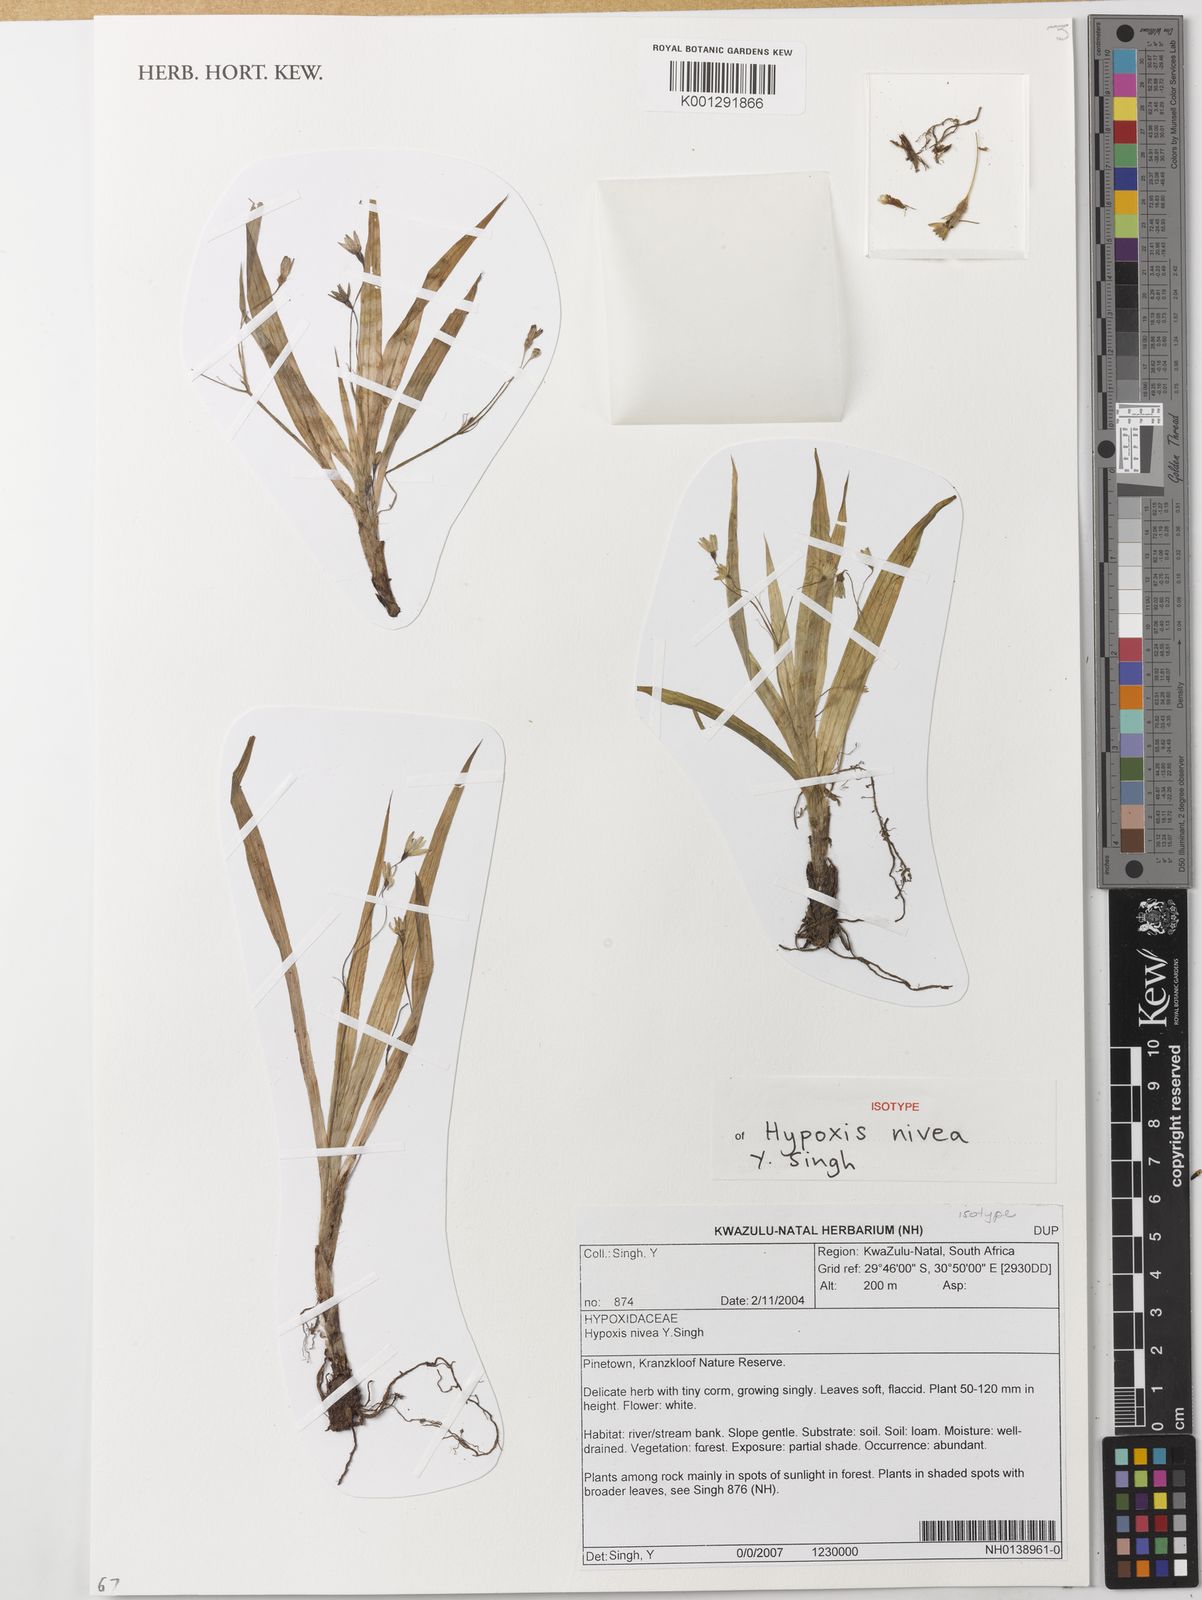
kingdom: Plantae
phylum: Tracheophyta
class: Liliopsida
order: Asparagales
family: Hypoxidaceae
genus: Hypoxis
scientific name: Hypoxis nivea
